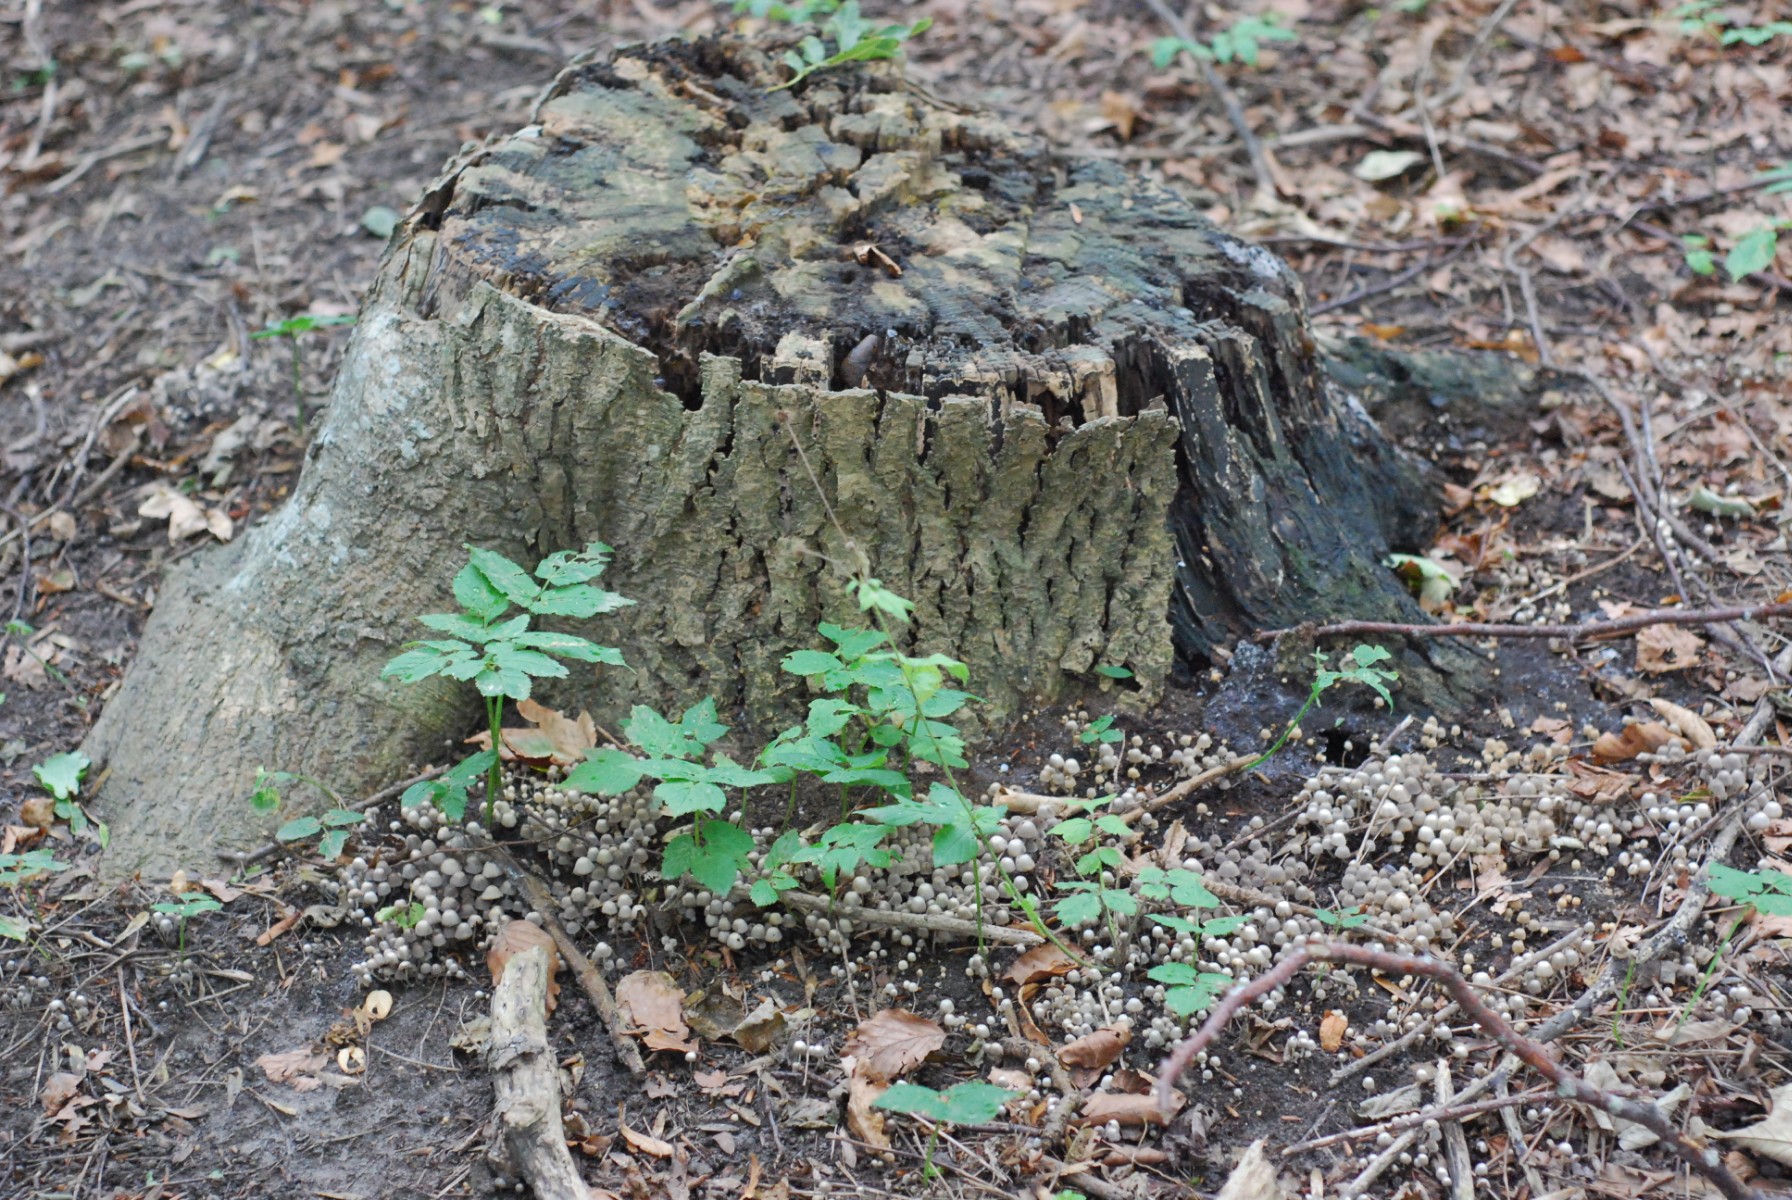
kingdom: Fungi
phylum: Basidiomycota
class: Agaricomycetes
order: Agaricales
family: Psathyrellaceae
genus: Coprinellus
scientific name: Coprinellus disseminatus
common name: bredsået blækhat
